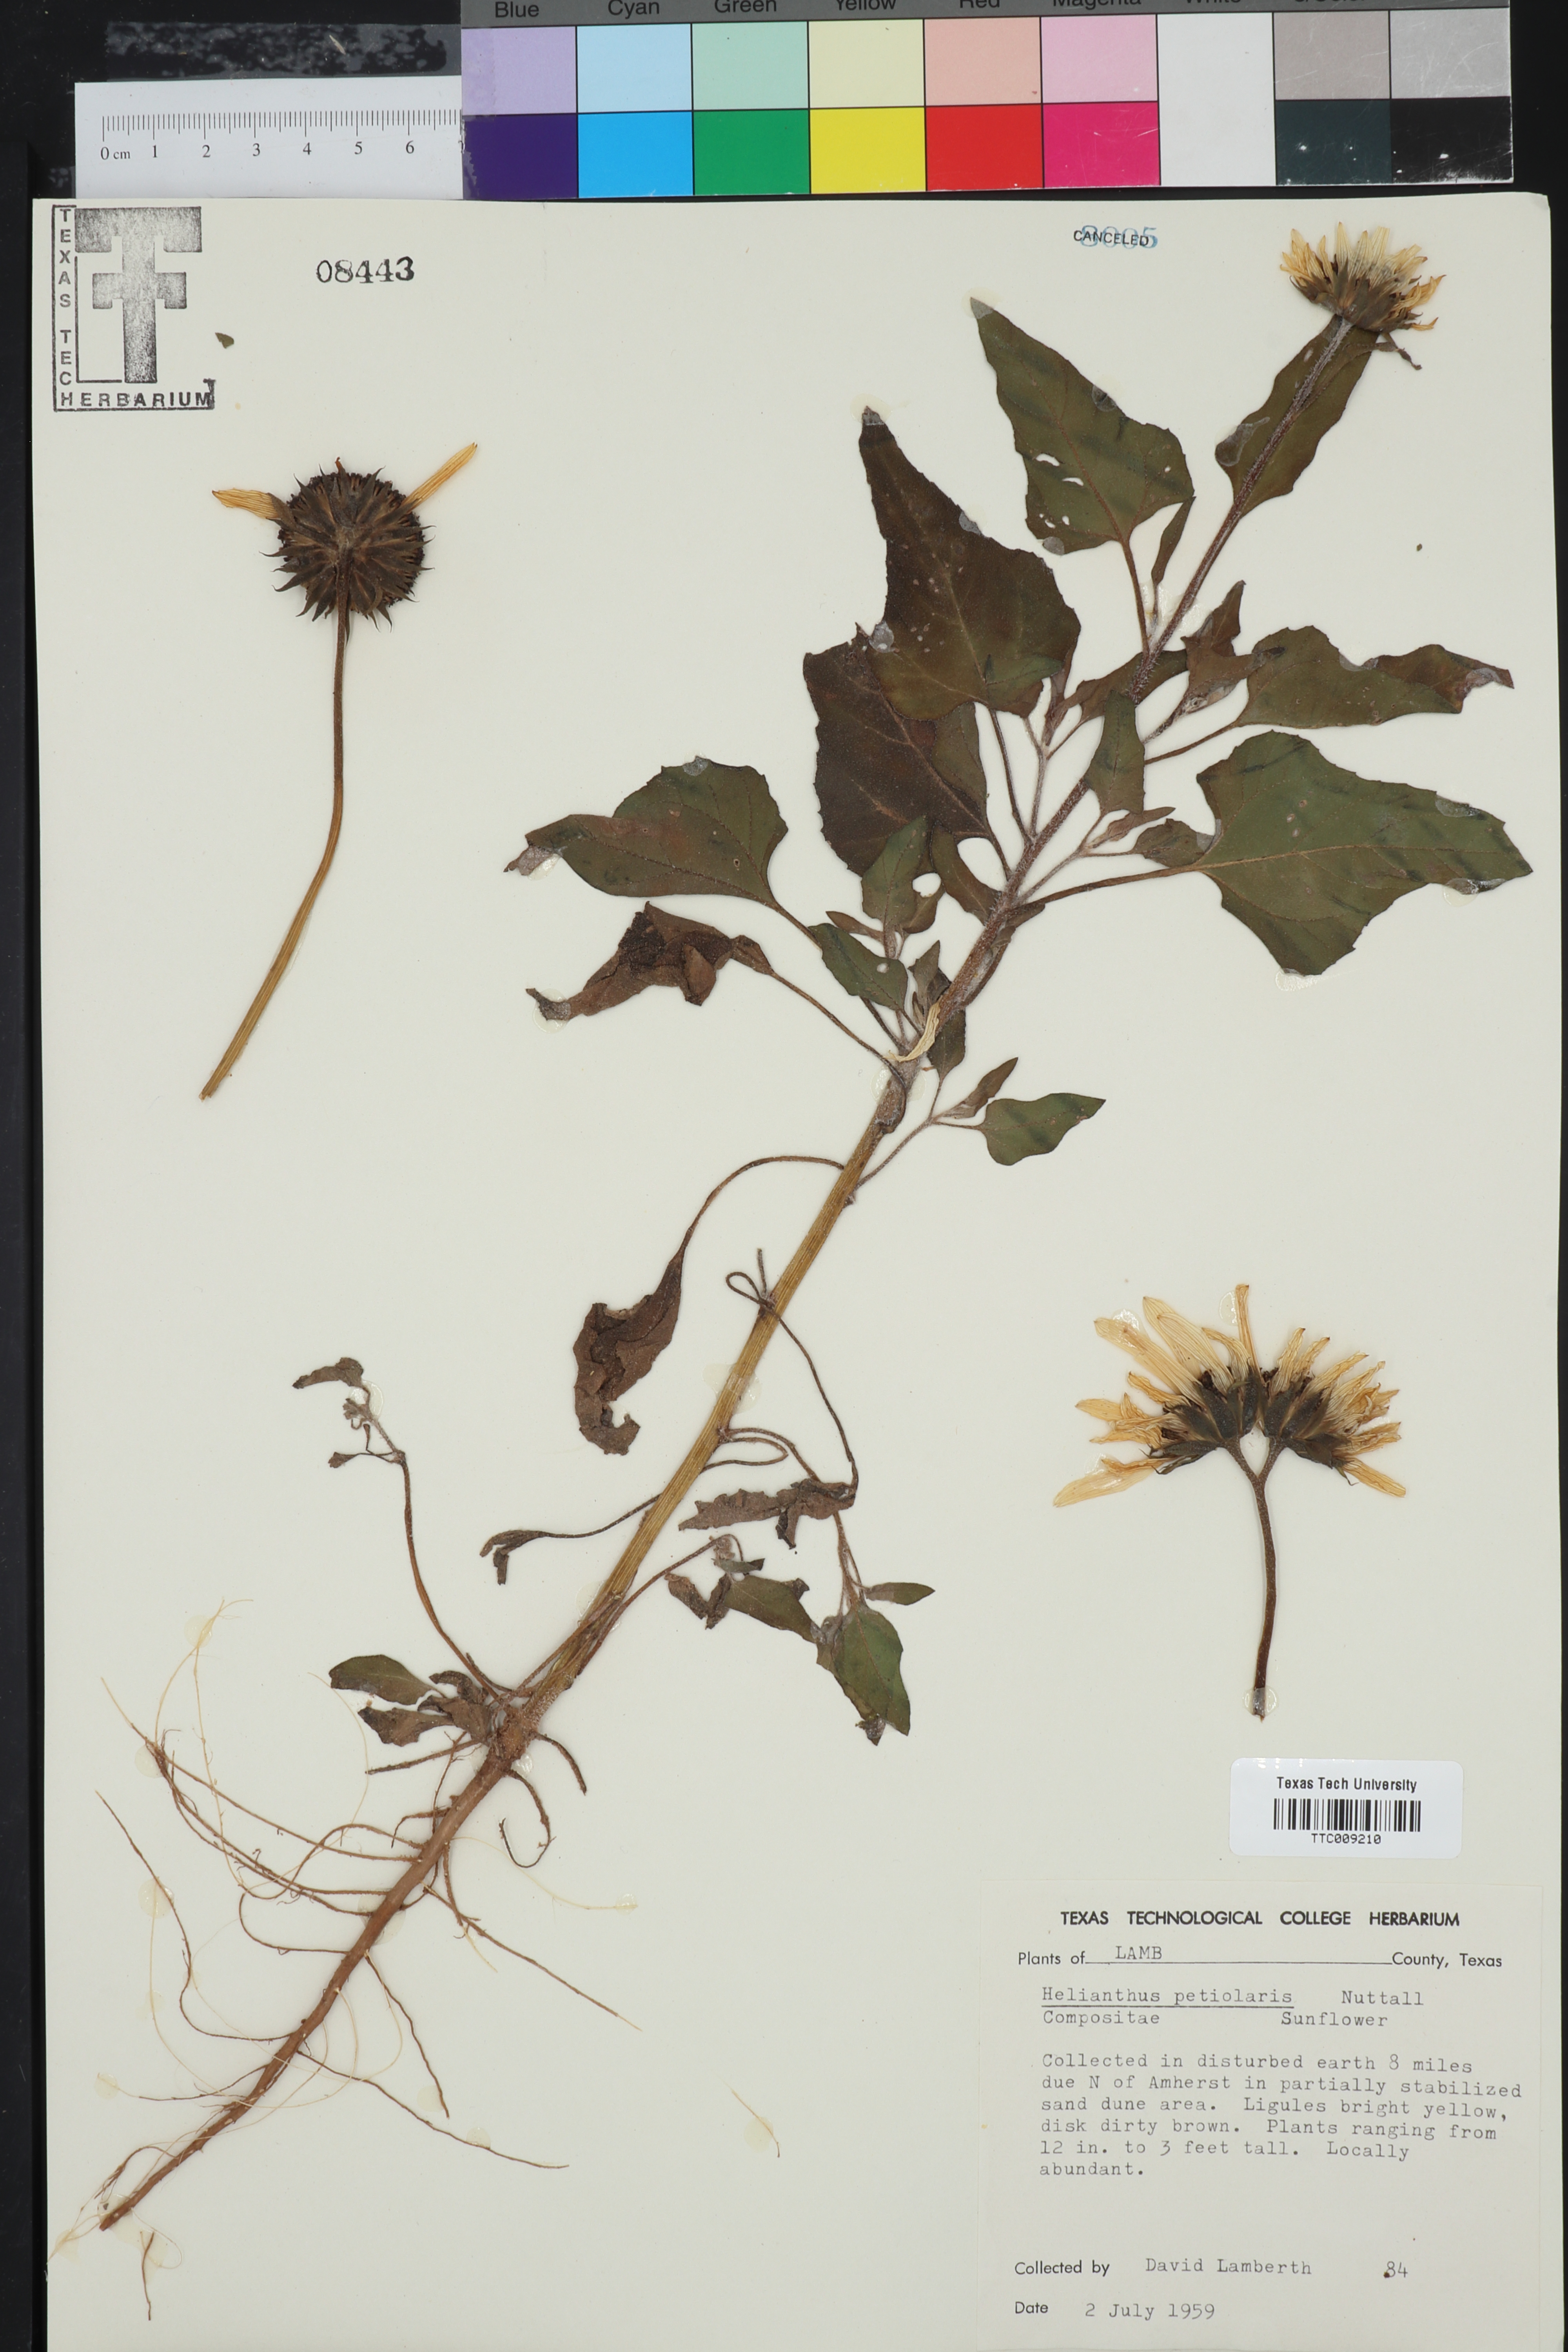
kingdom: Plantae
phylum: Tracheophyta
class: Magnoliopsida
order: Asterales
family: Asteraceae
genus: Helianthus
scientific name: Helianthus petiolaris
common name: Lesser sunflower
